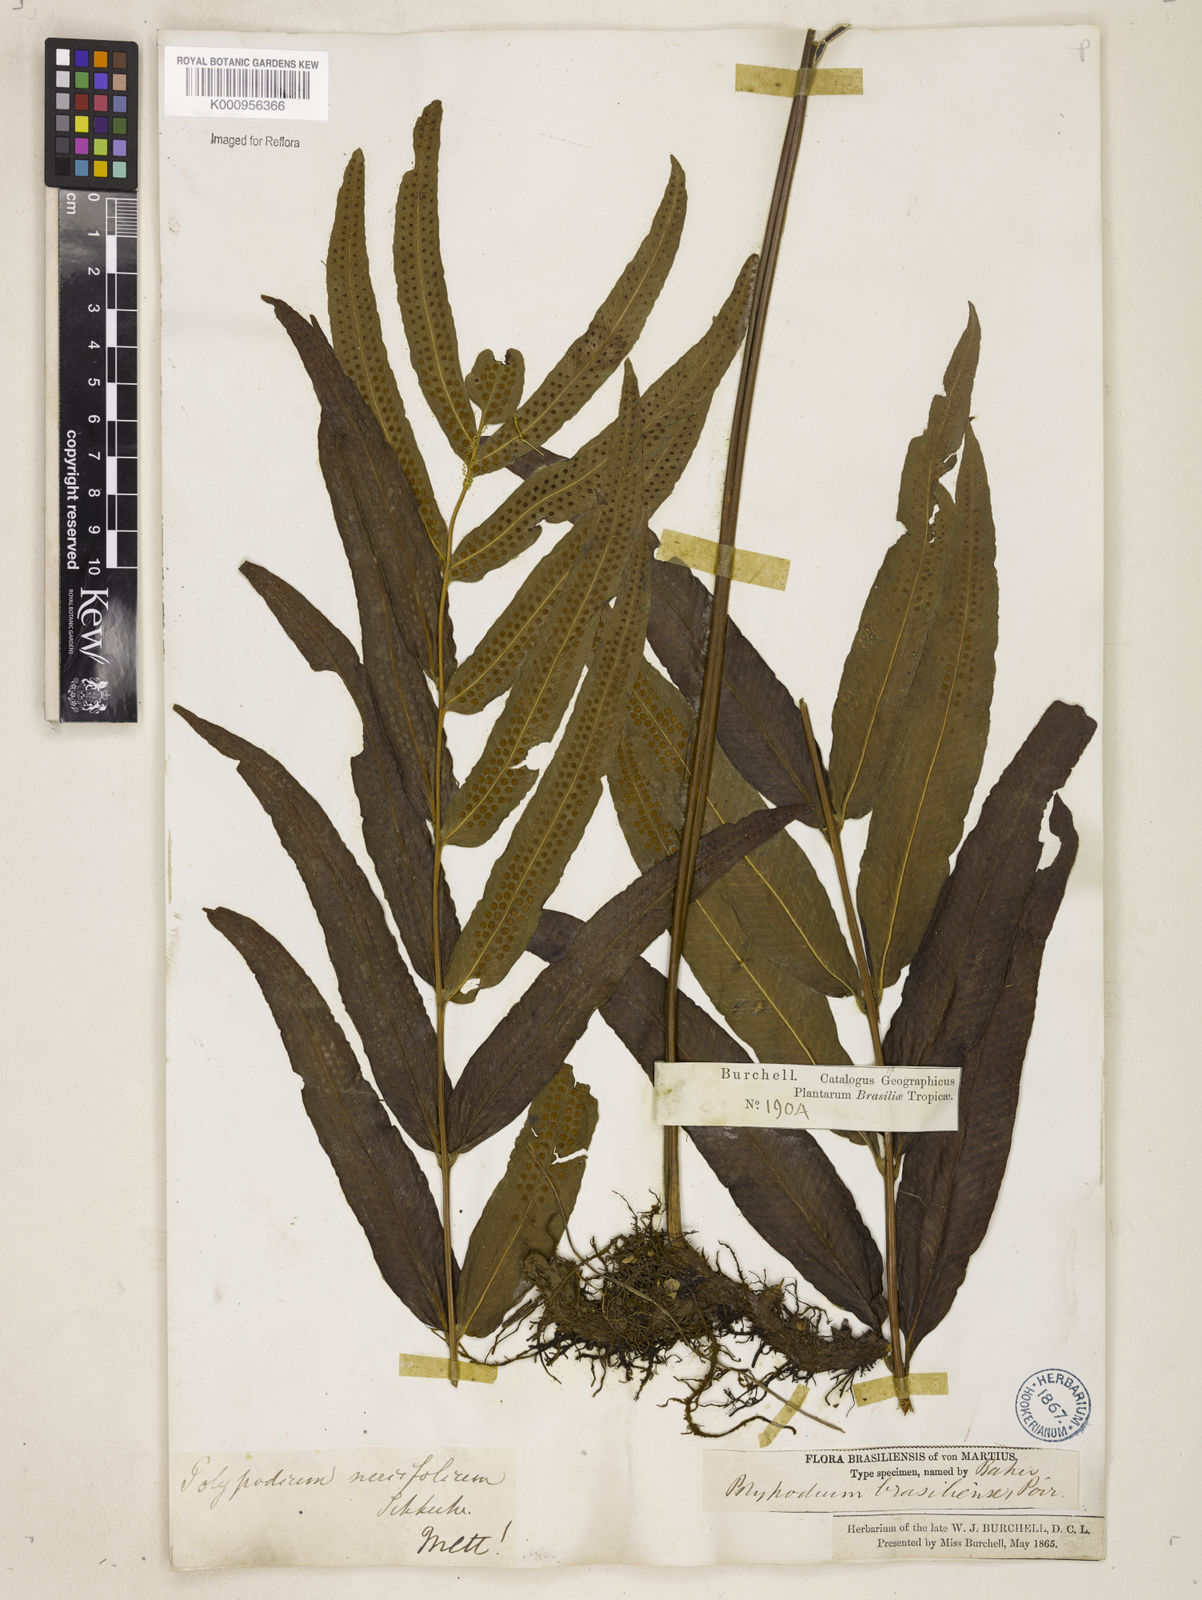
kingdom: Plantae
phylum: Tracheophyta
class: Polypodiopsida
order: Polypodiales
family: Polypodiaceae
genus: Serpocaulon
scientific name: Serpocaulon triseriale
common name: Angle-vein fern
